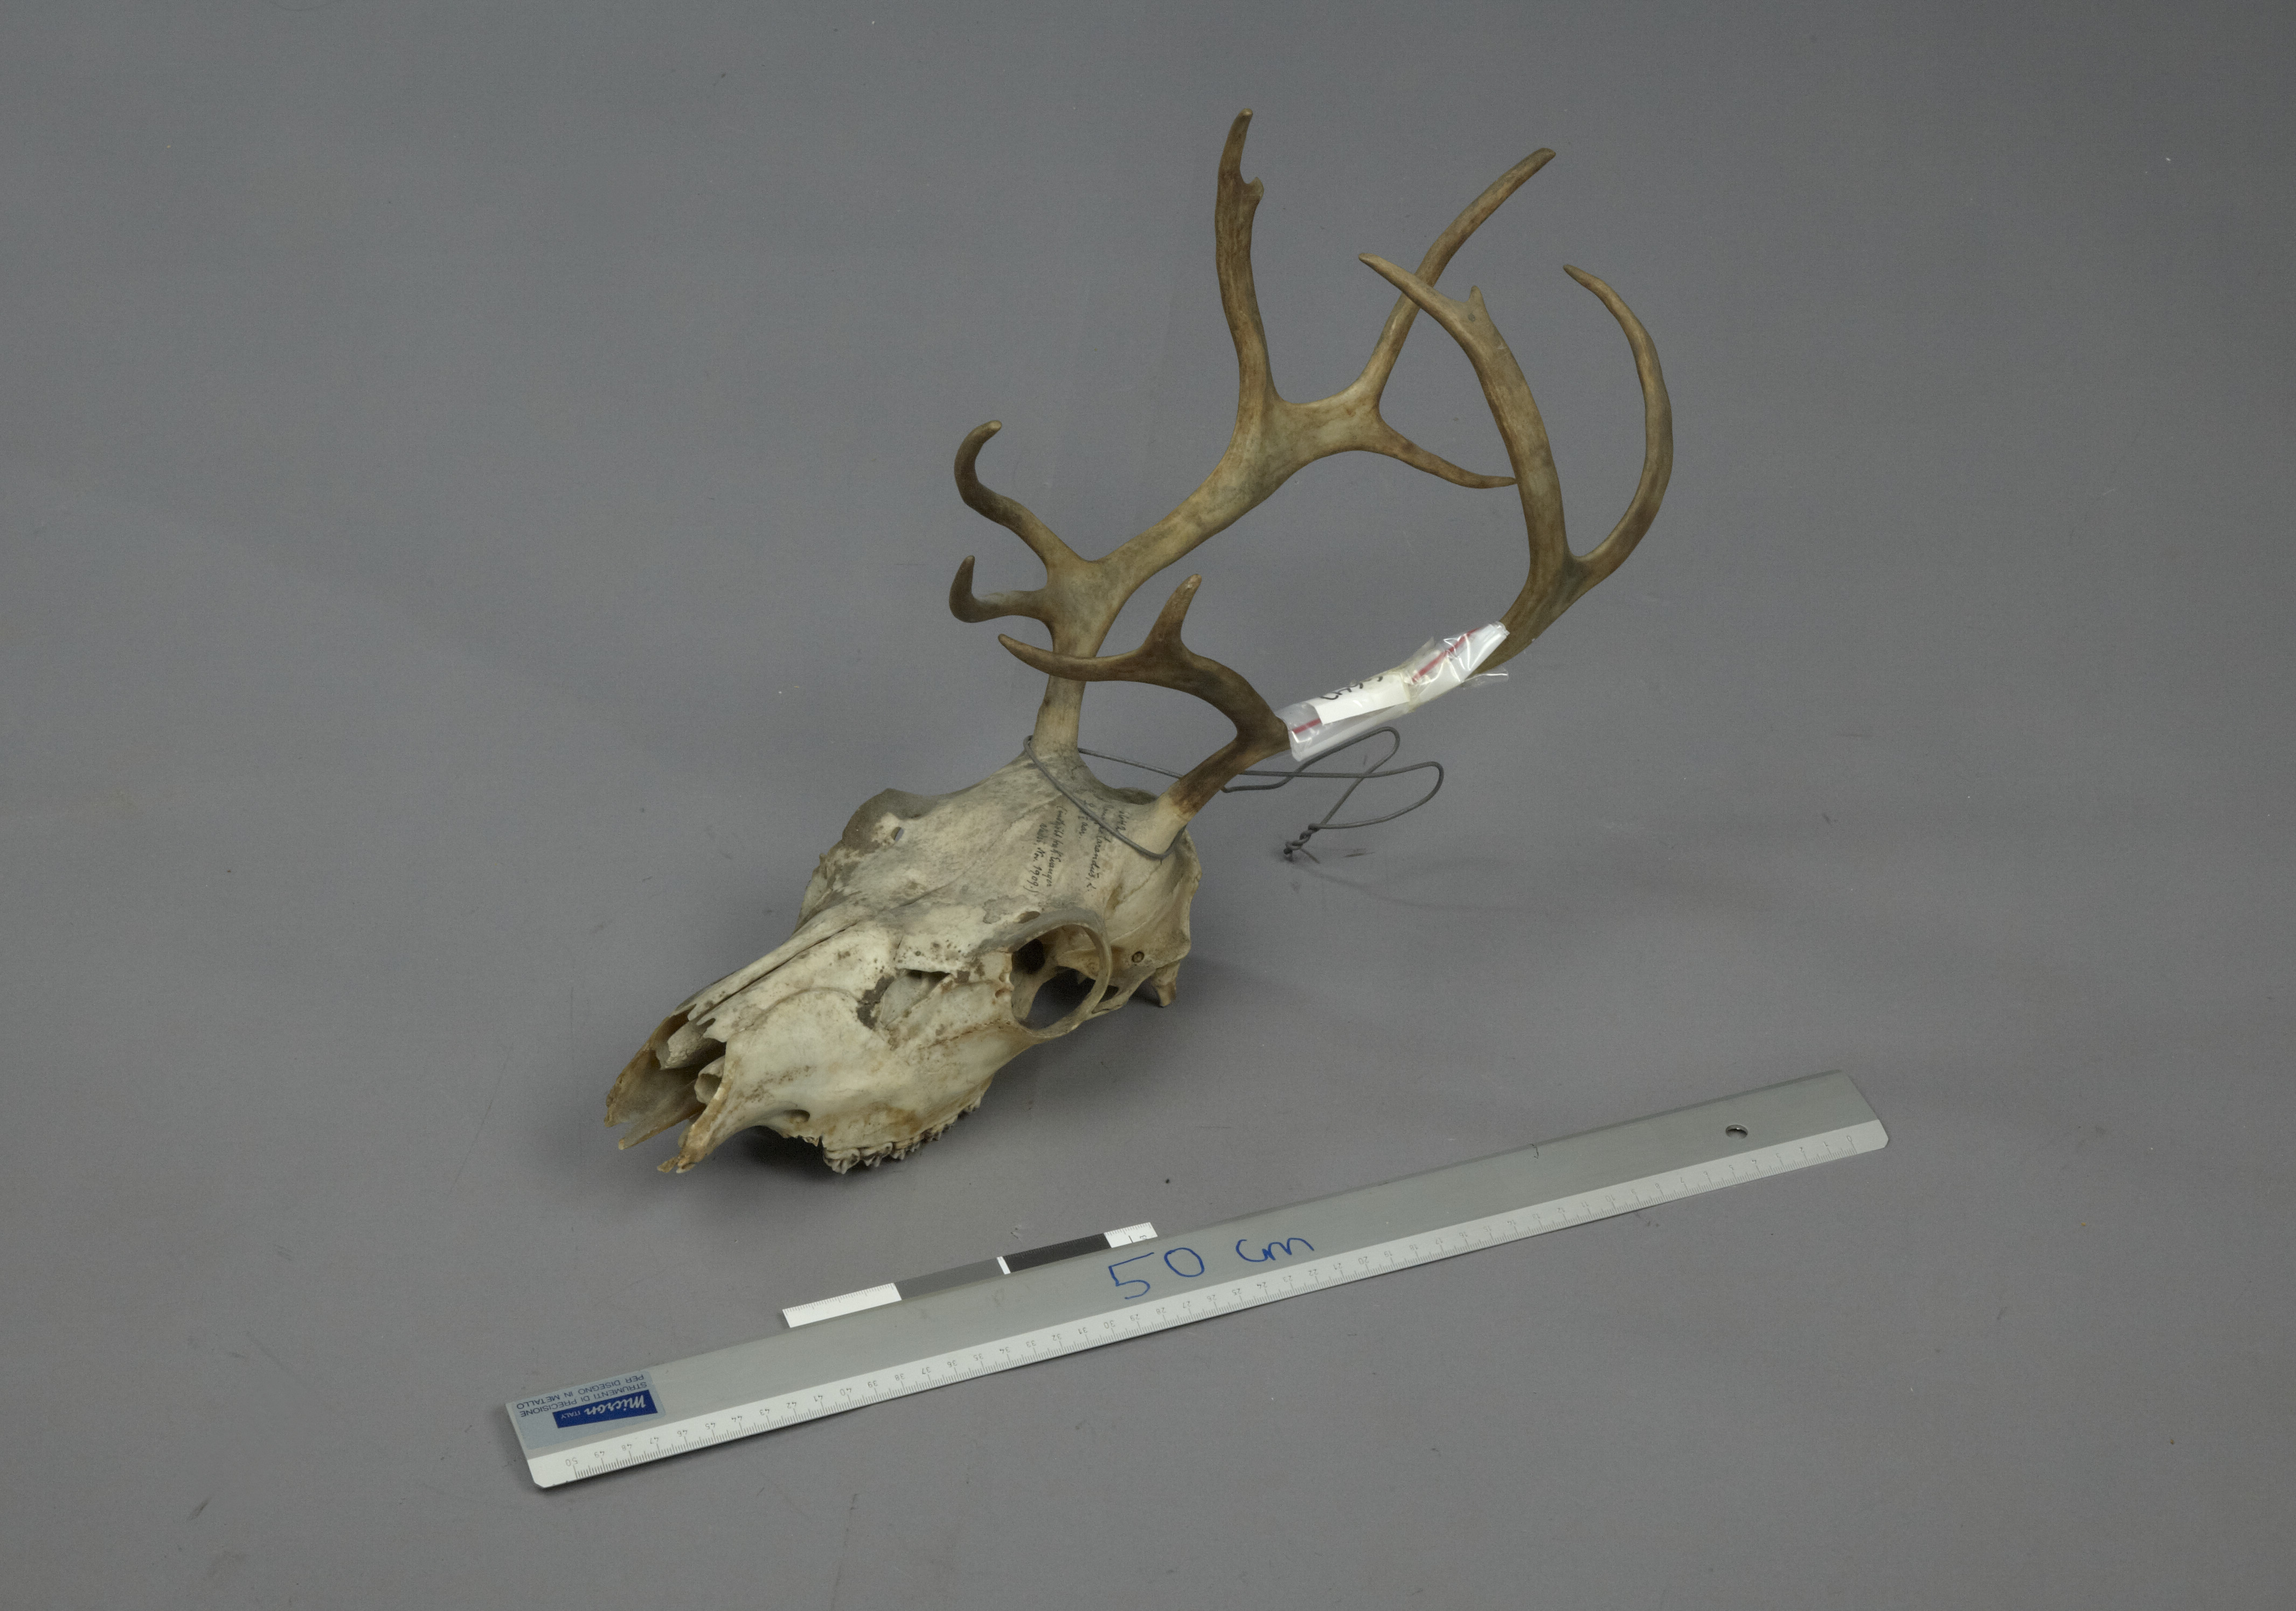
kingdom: Animalia
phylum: Chordata
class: Mammalia
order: Artiodactyla
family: Cervidae
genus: Rangifer
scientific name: Rangifer tarandus
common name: Reindeer
